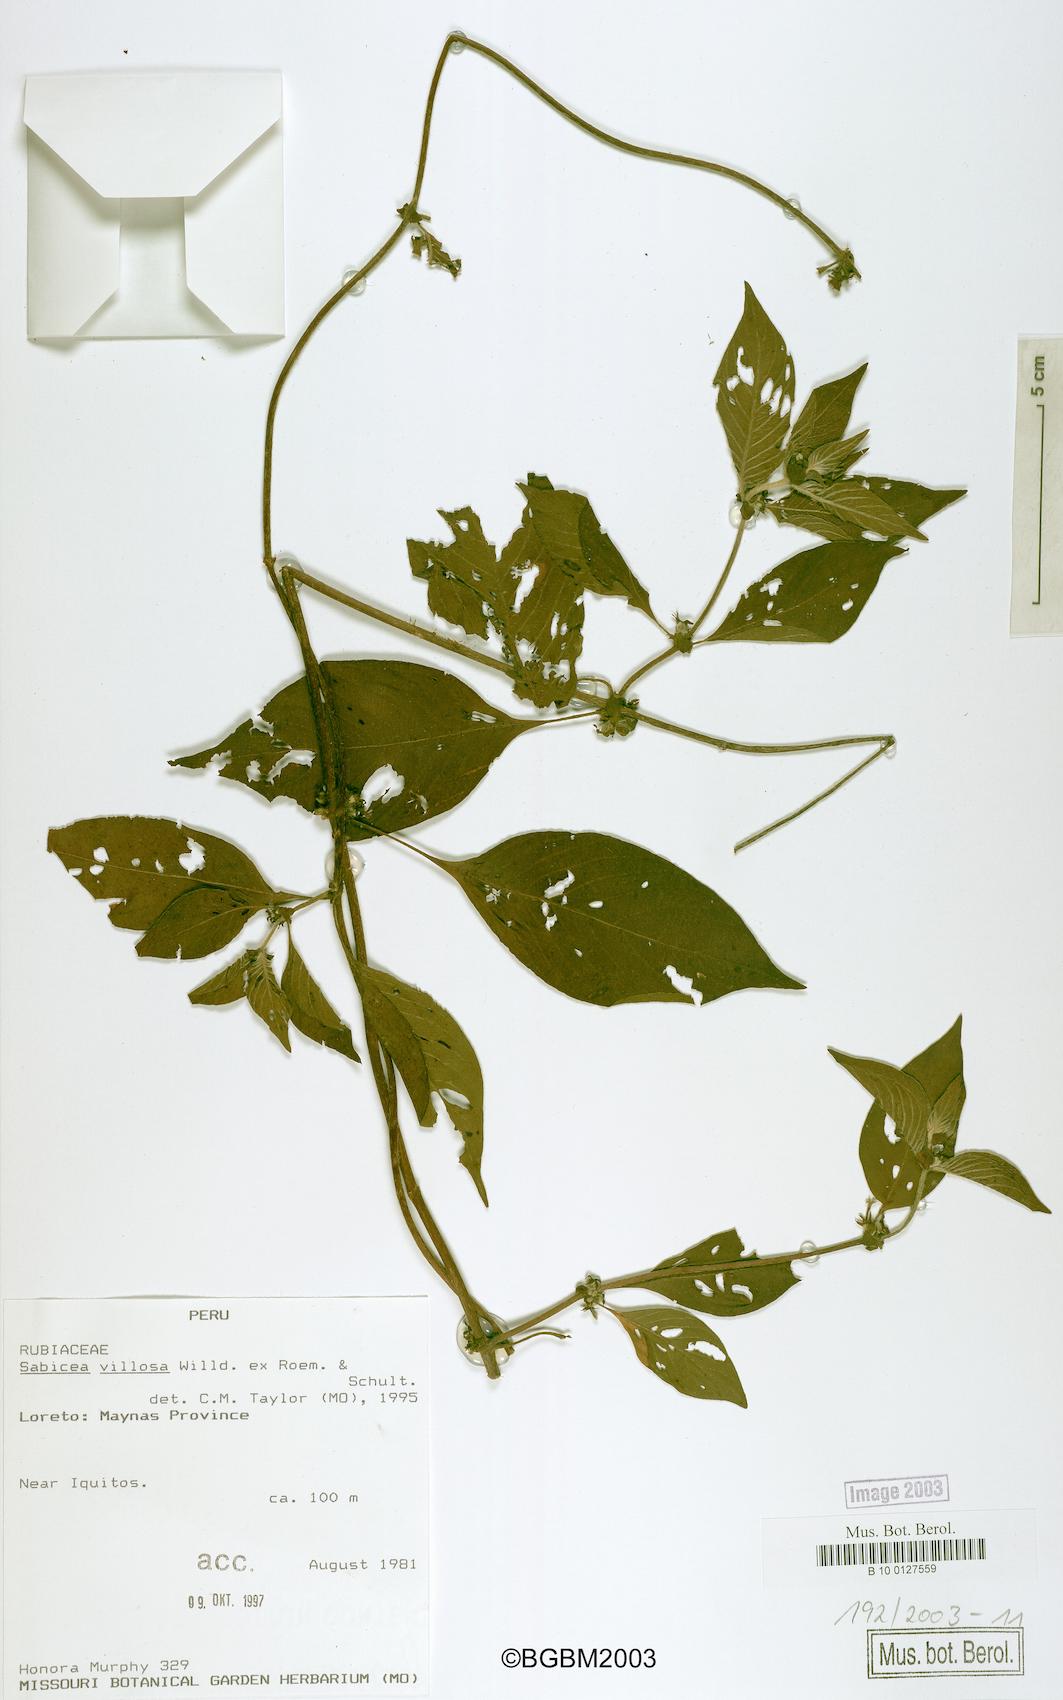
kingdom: Plantae
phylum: Tracheophyta
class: Magnoliopsida
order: Gentianales
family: Rubiaceae
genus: Sabicea
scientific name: Sabicea villosa
